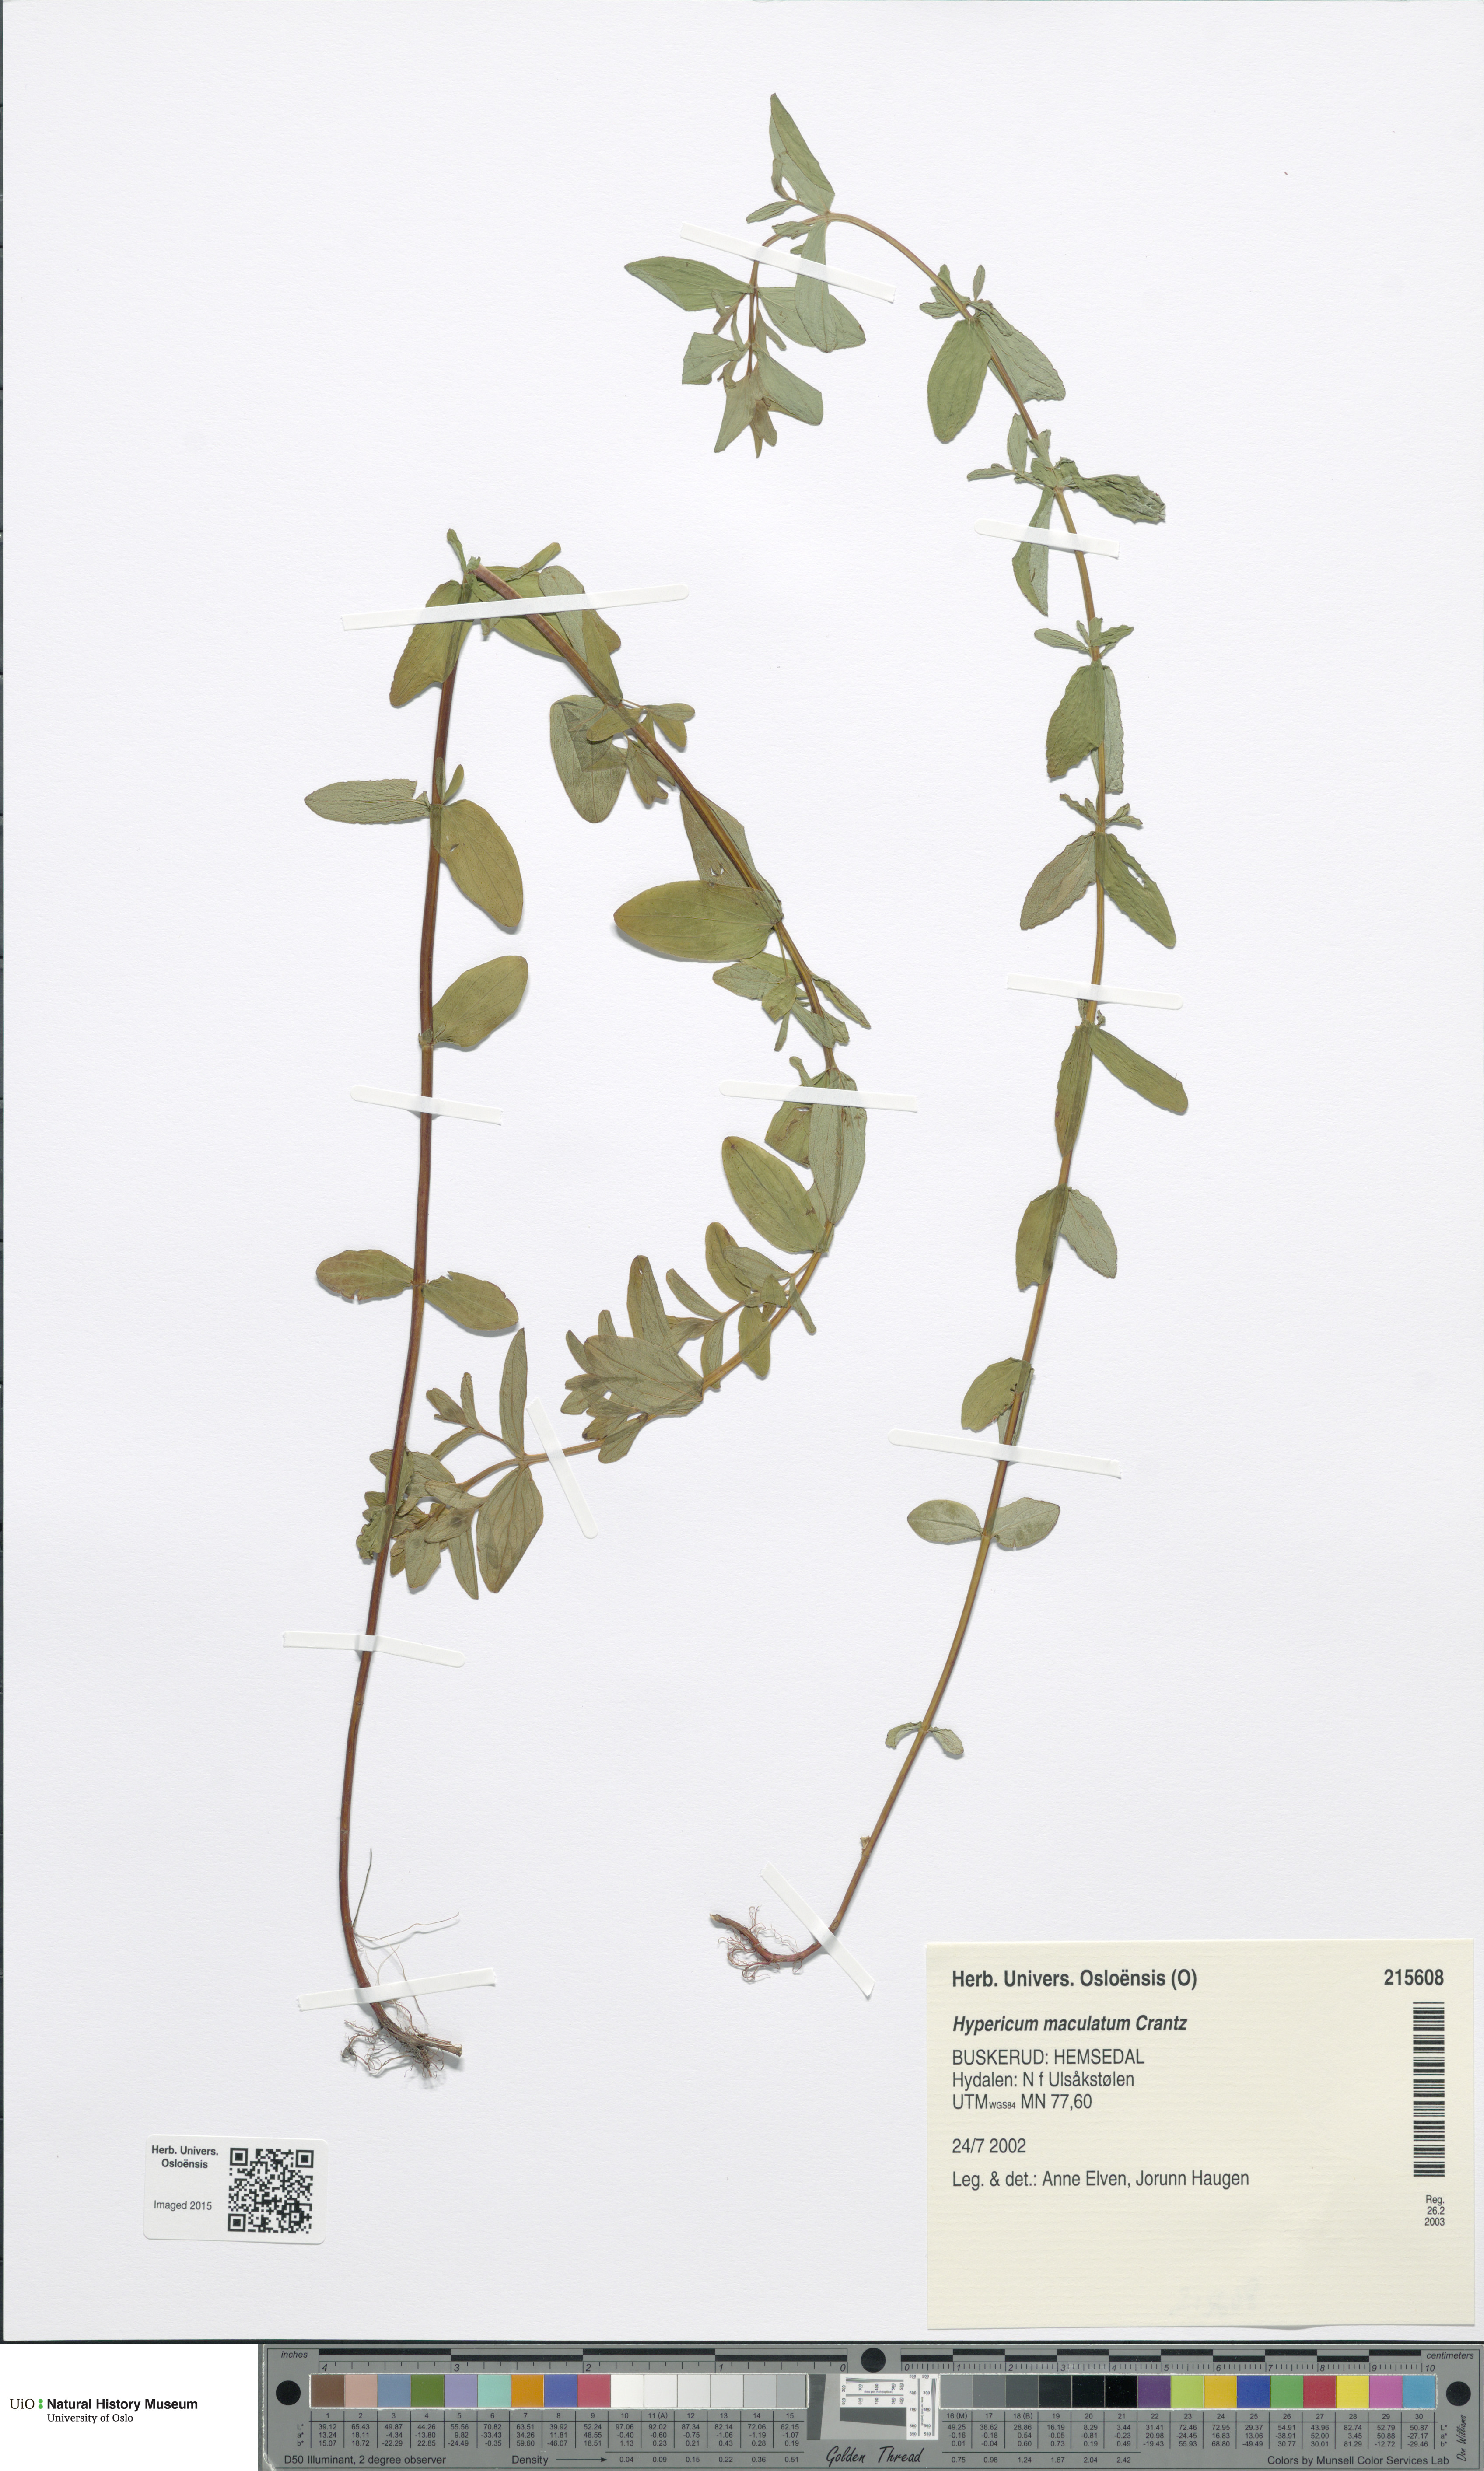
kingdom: Plantae
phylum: Tracheophyta
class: Magnoliopsida
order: Malpighiales
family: Hypericaceae
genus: Hypericum
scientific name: Hypericum maculatum
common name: Imperforate st. john's-wort
